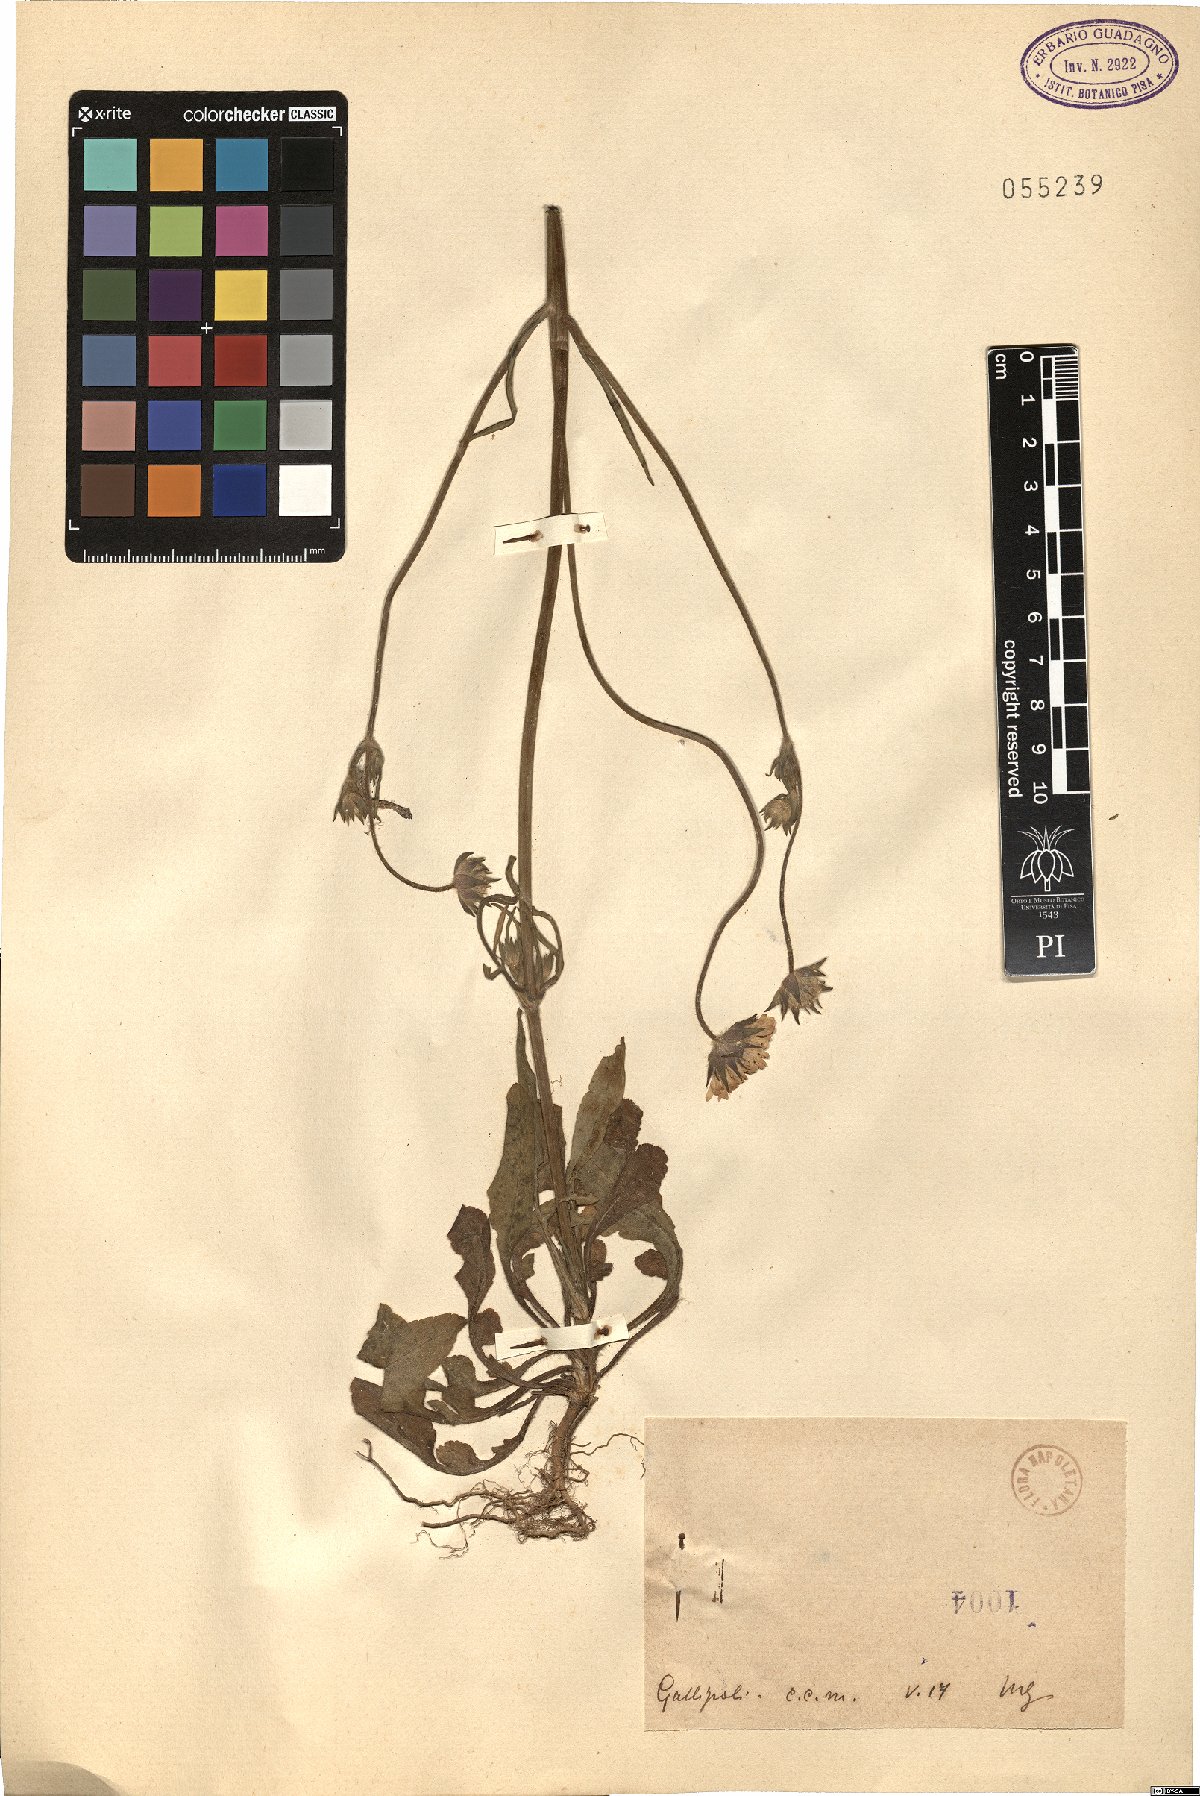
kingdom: Plantae
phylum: Tracheophyta
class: Magnoliopsida
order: Dipsacales
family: Caprifoliaceae
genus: Knautia
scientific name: Knautia
